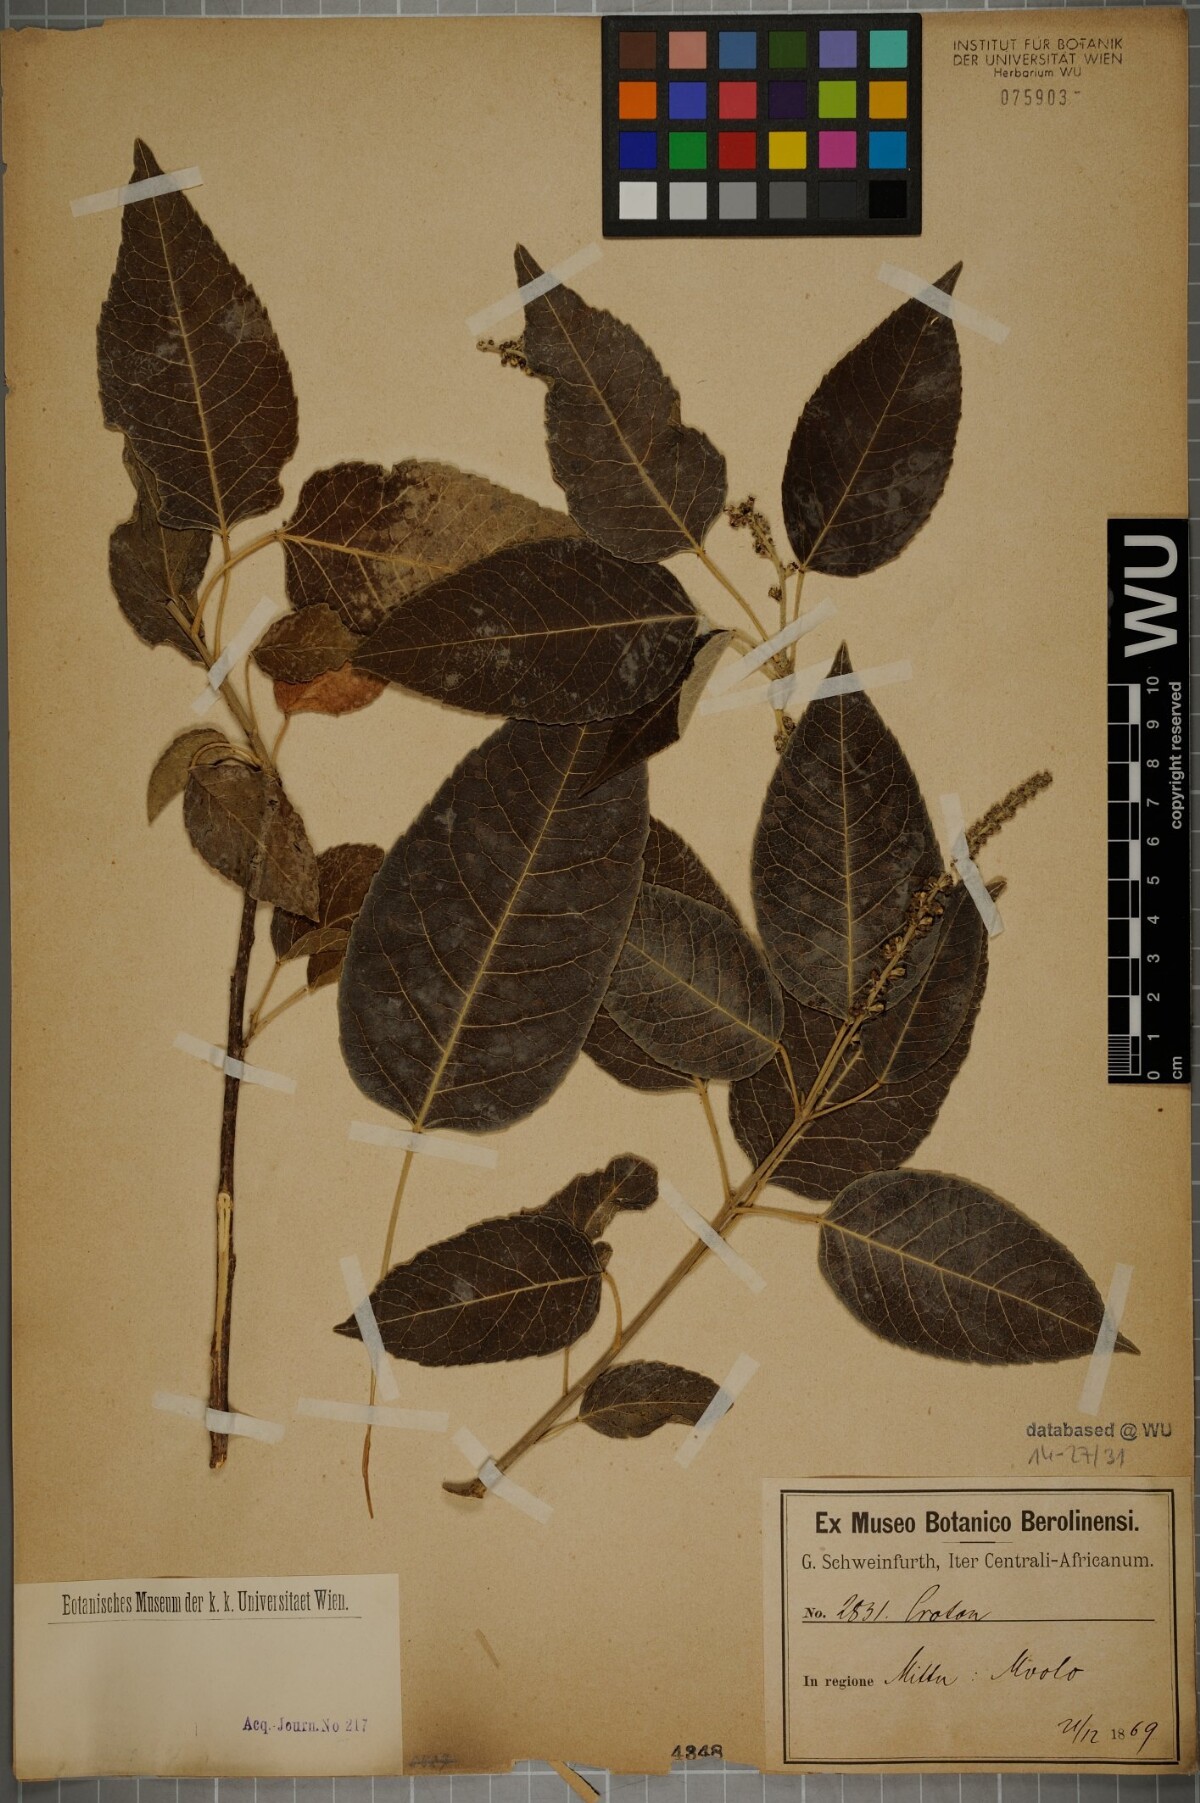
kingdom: Plantae
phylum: Tracheophyta
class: Magnoliopsida
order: Malpighiales
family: Euphorbiaceae
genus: Croton
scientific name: Croton
